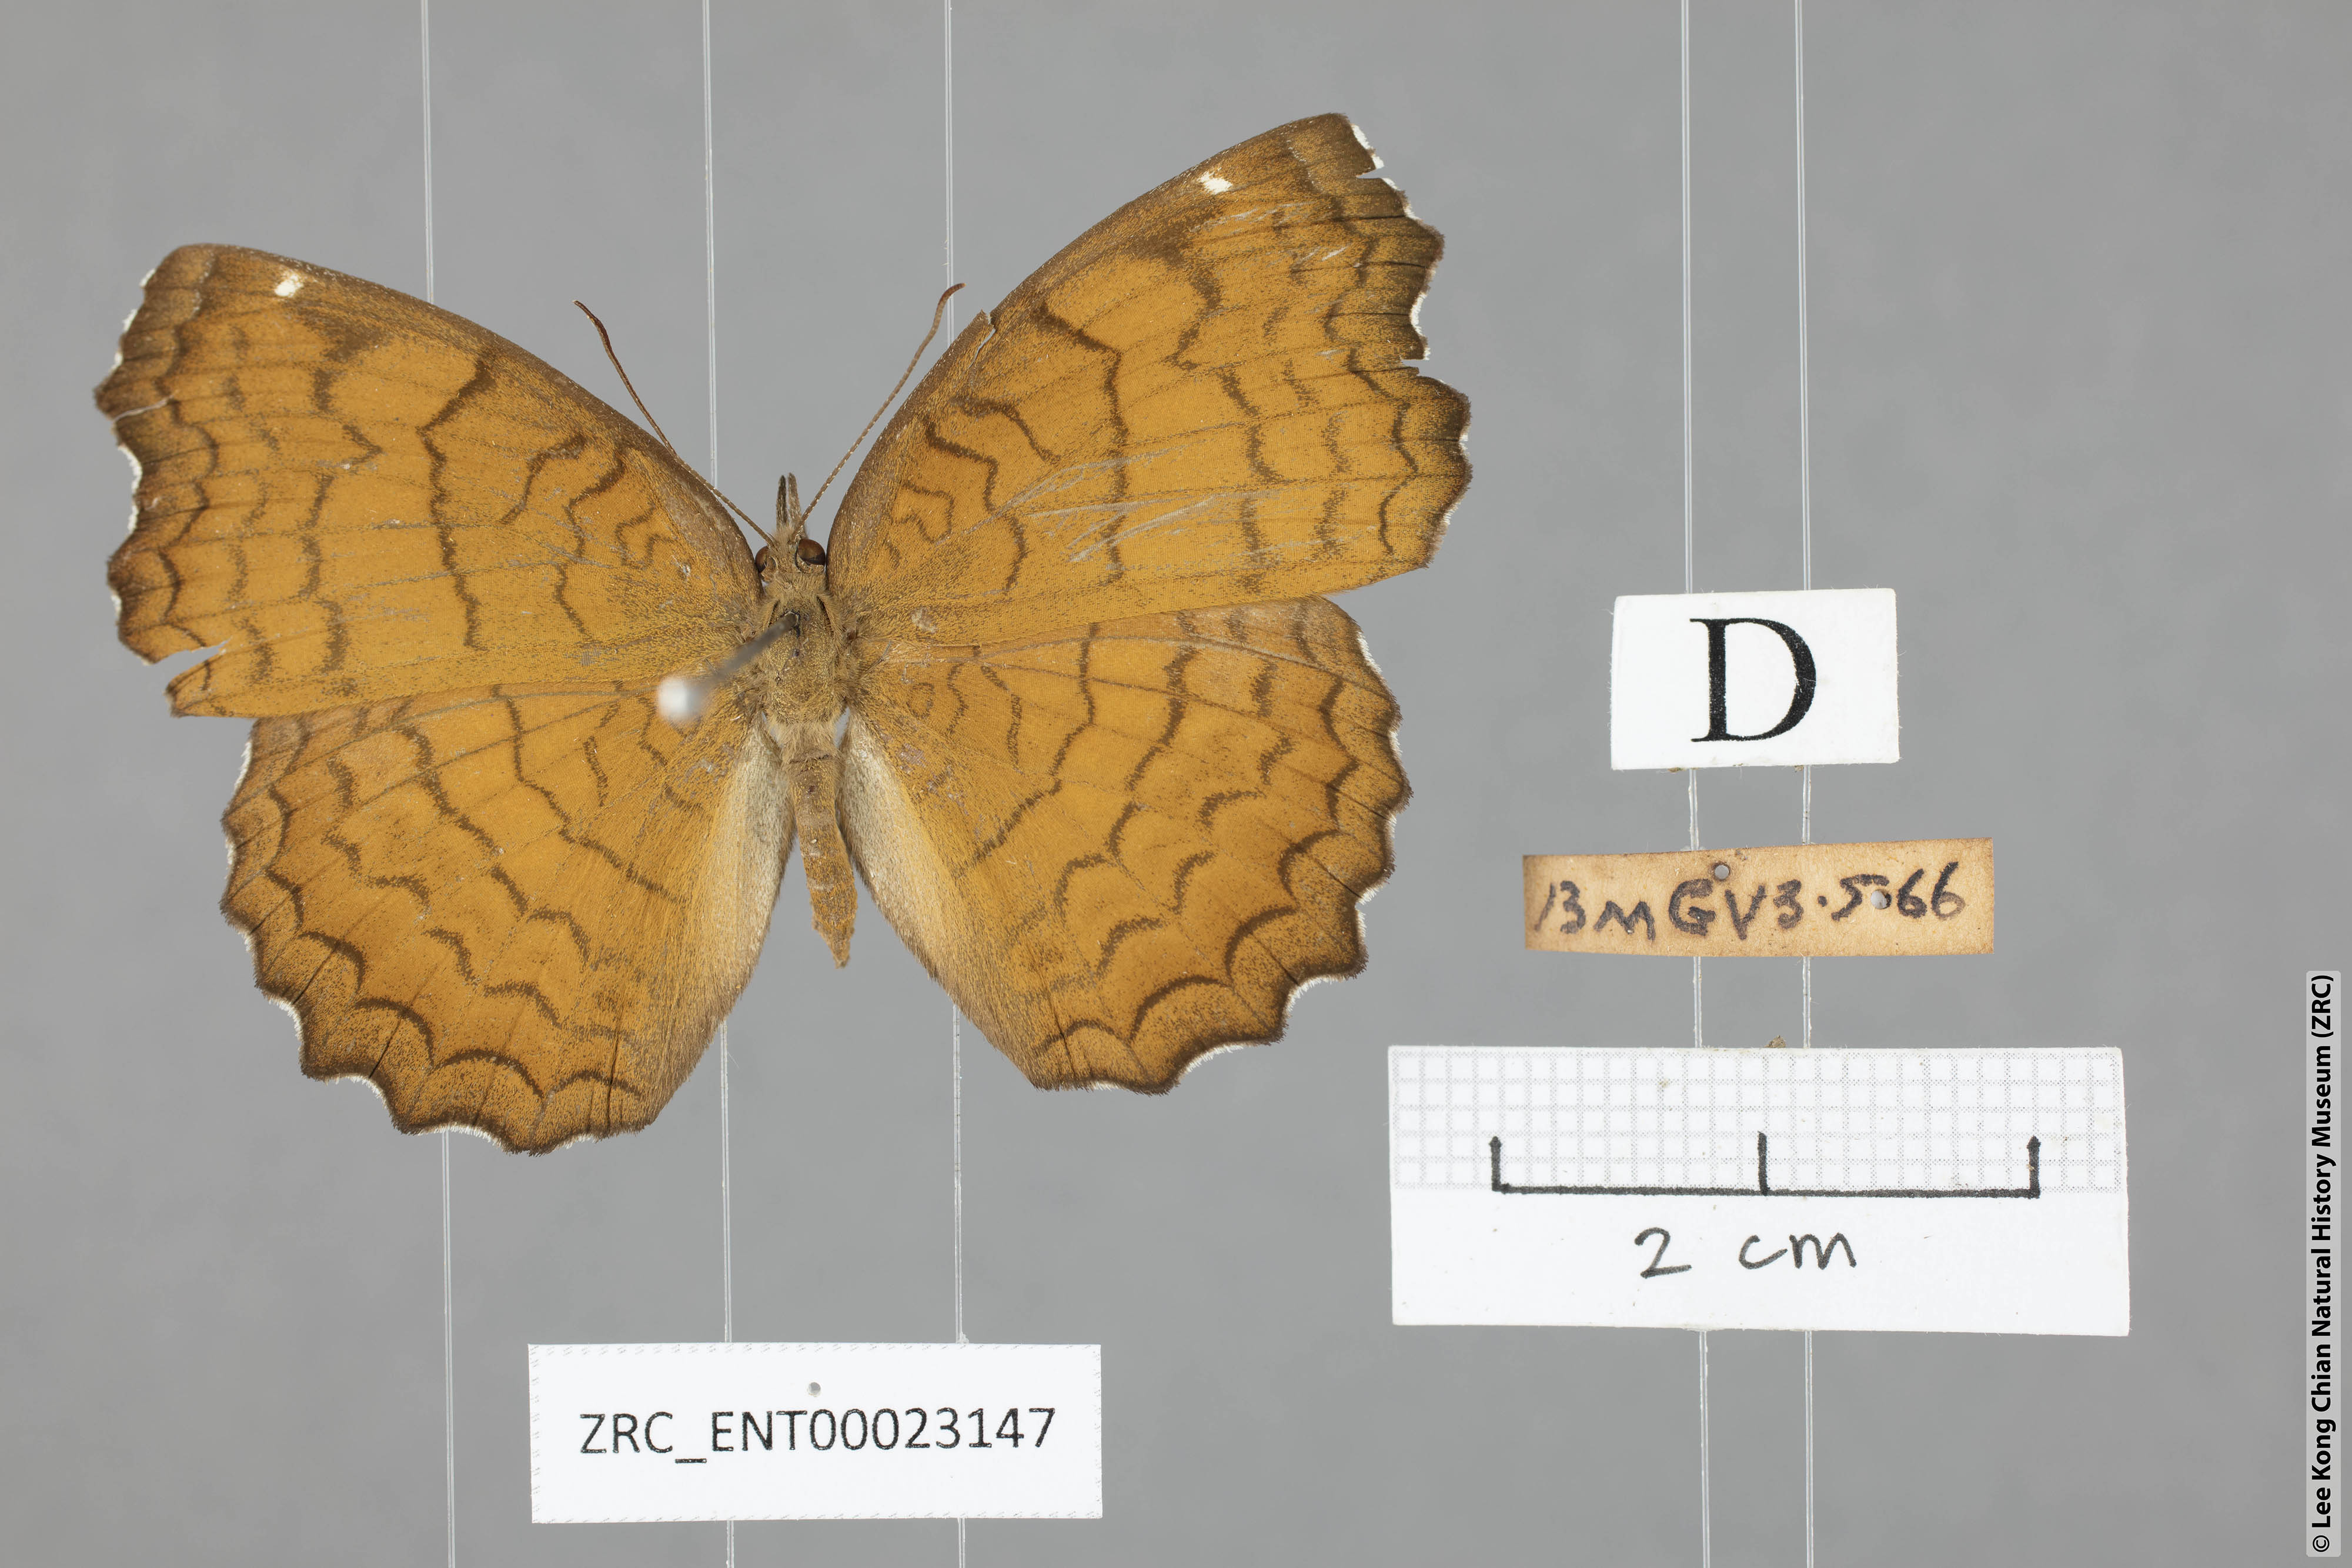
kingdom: Animalia
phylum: Arthropoda
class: Insecta
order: Lepidoptera
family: Nymphalidae
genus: Ariadne
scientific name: Ariadne ariadne
